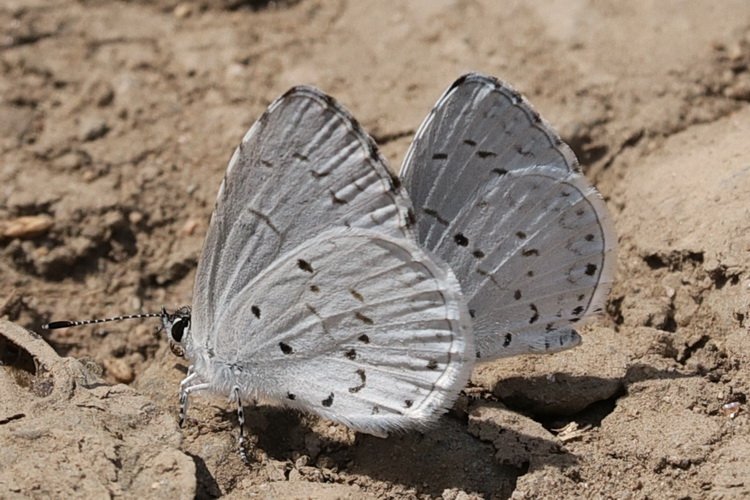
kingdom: Animalia
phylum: Arthropoda
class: Insecta
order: Lepidoptera
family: Lycaenidae
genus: Cyaniris
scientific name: Cyaniris neglecta
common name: Summer Azure
